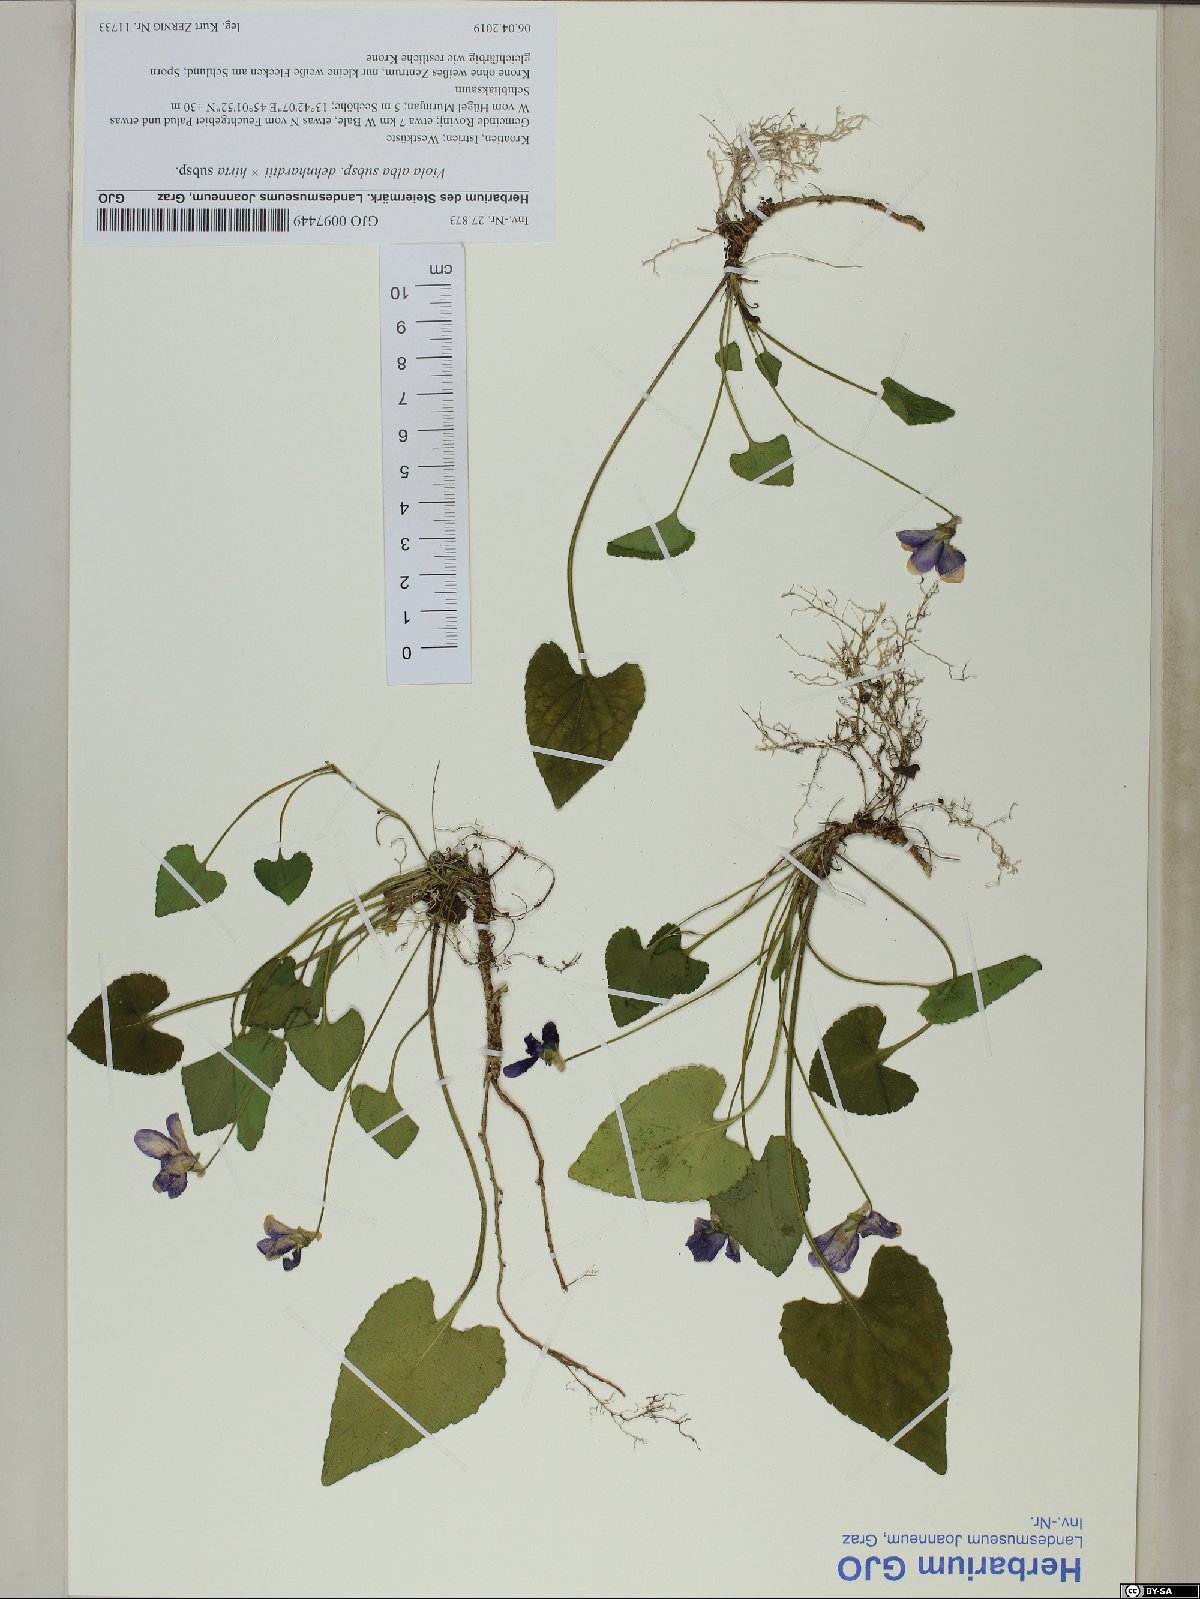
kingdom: Plantae
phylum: Tracheophyta
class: Magnoliopsida
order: Malpighiales
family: Violaceae
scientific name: Violaceae
